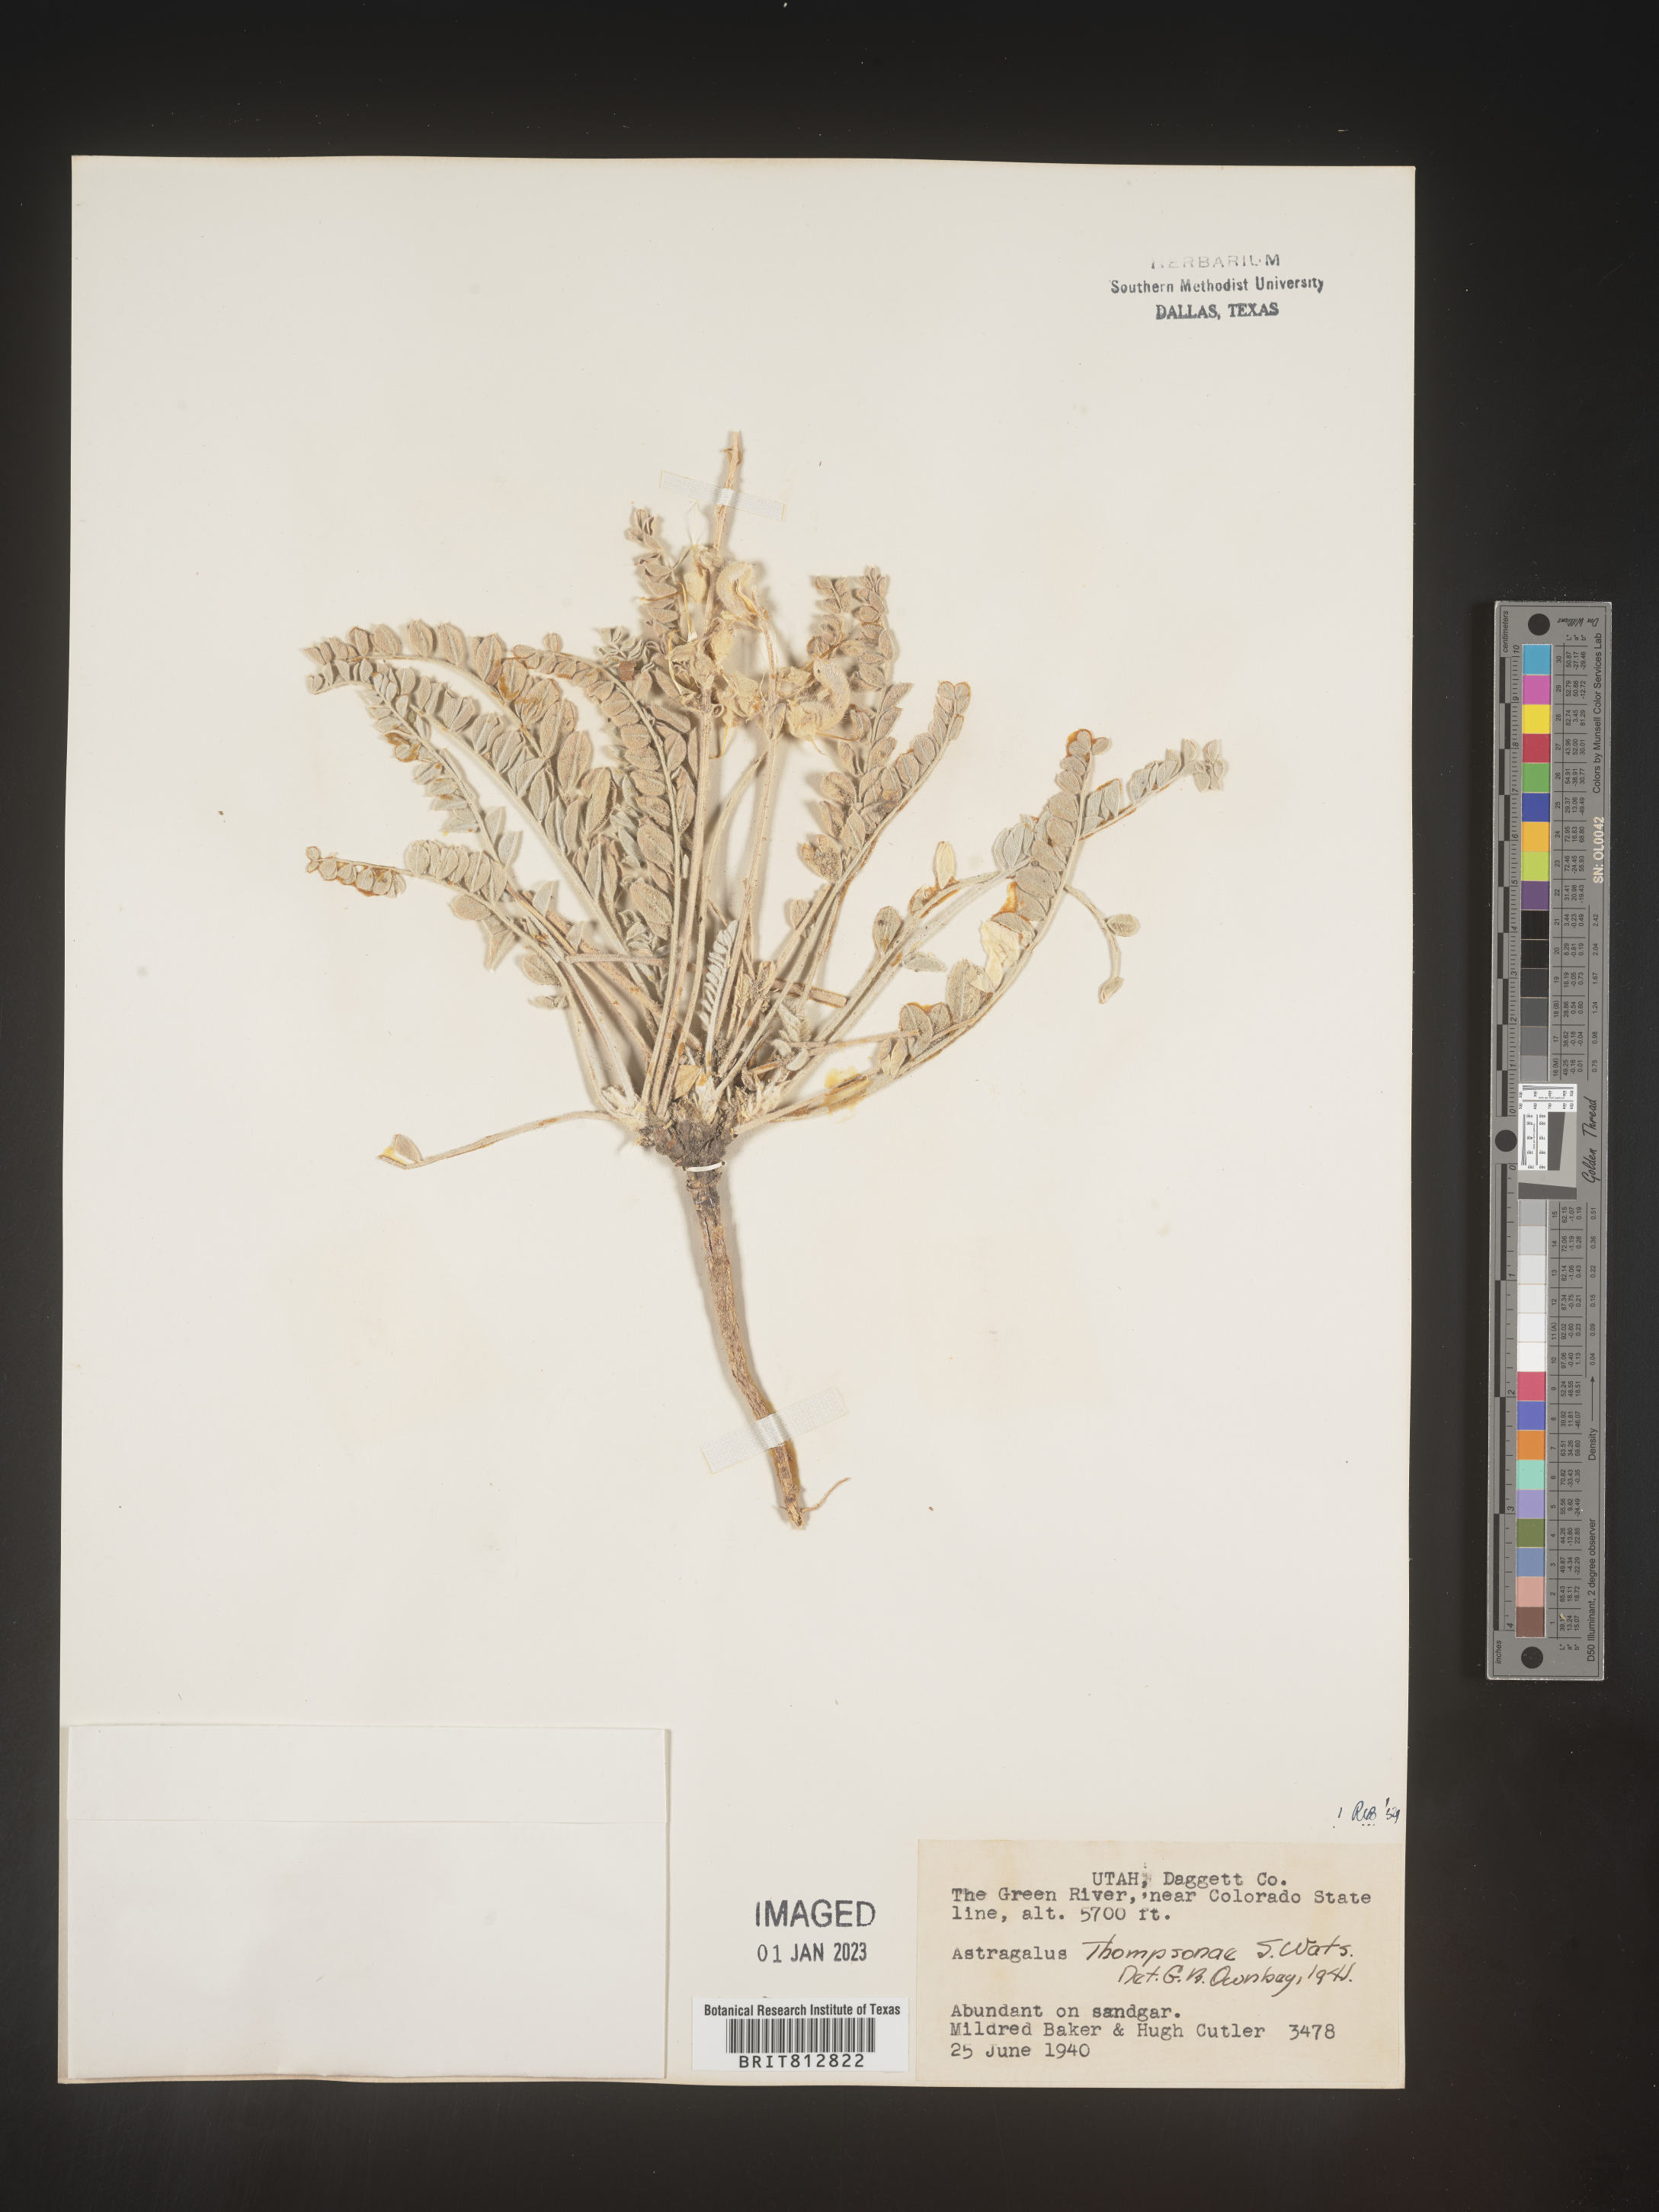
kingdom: Plantae
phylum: Tracheophyta
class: Magnoliopsida
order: Fabales
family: Fabaceae
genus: Astragalus
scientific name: Astragalus
